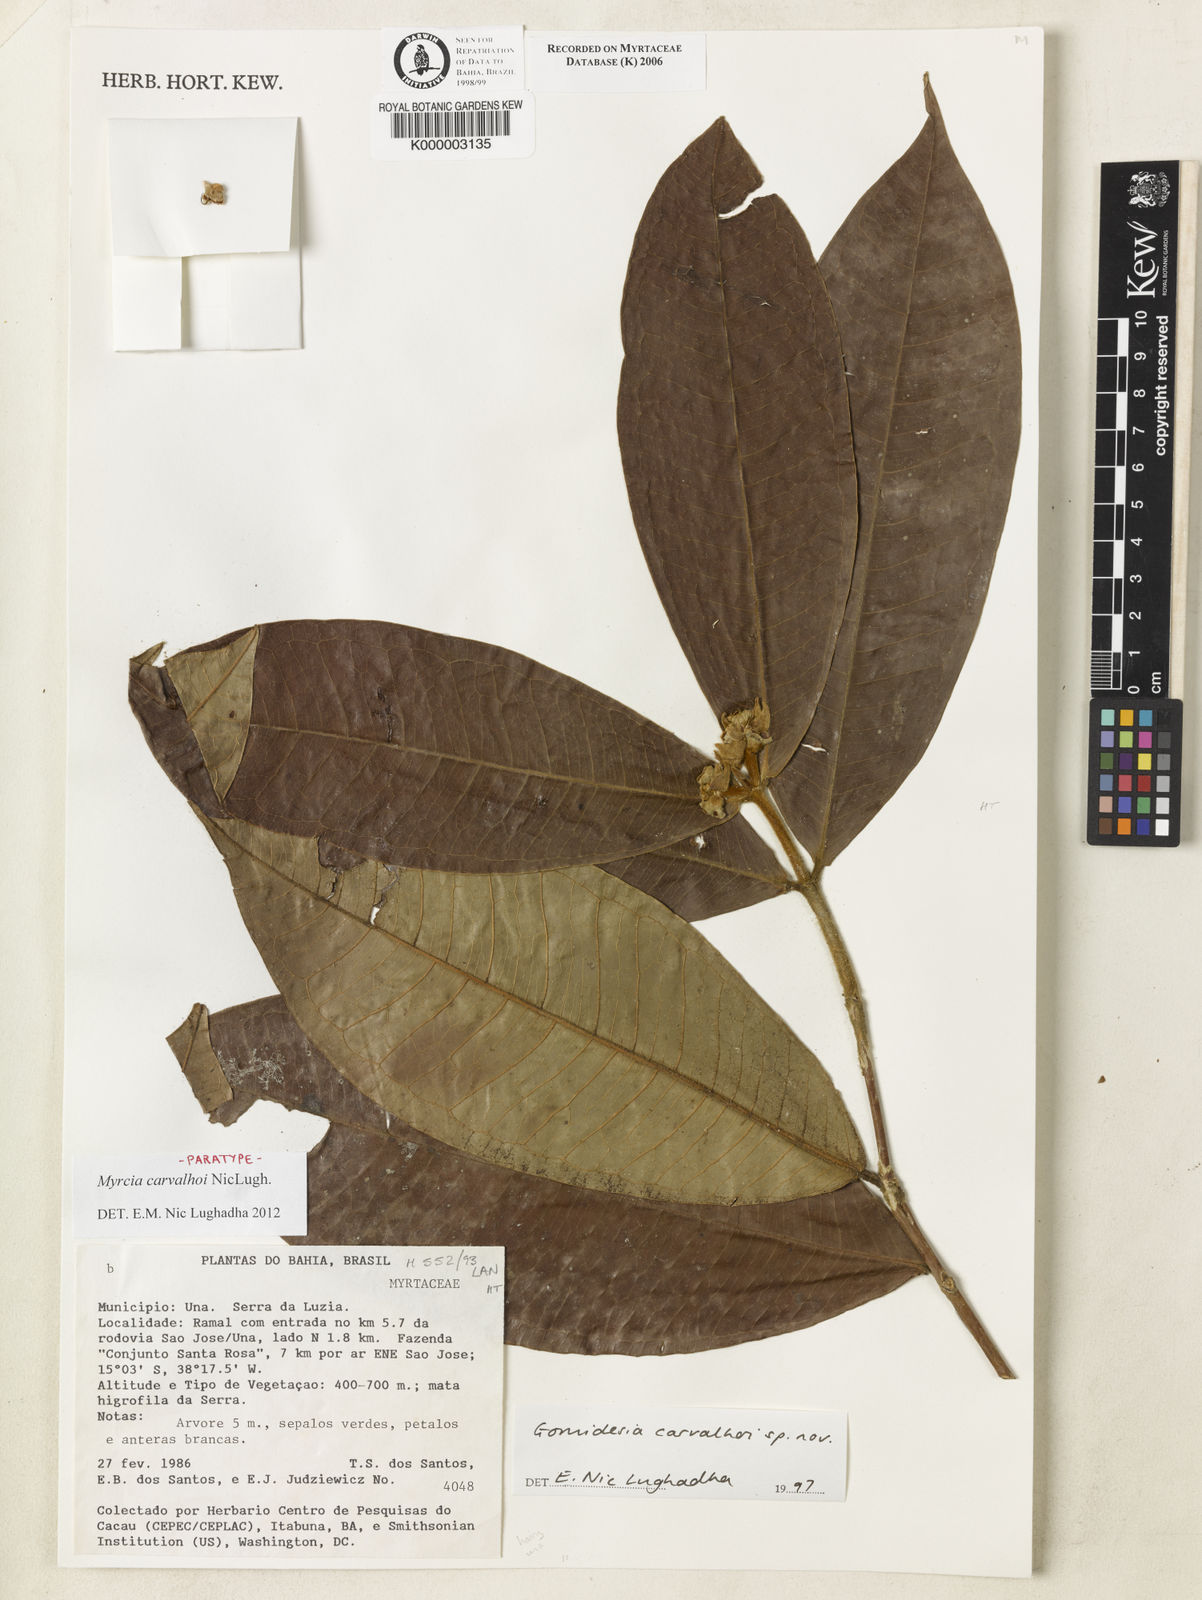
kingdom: Plantae
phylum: Tracheophyta
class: Magnoliopsida
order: Myrtales
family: Myrtaceae
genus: Myrcia
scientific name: Myrcia carvalhoi
